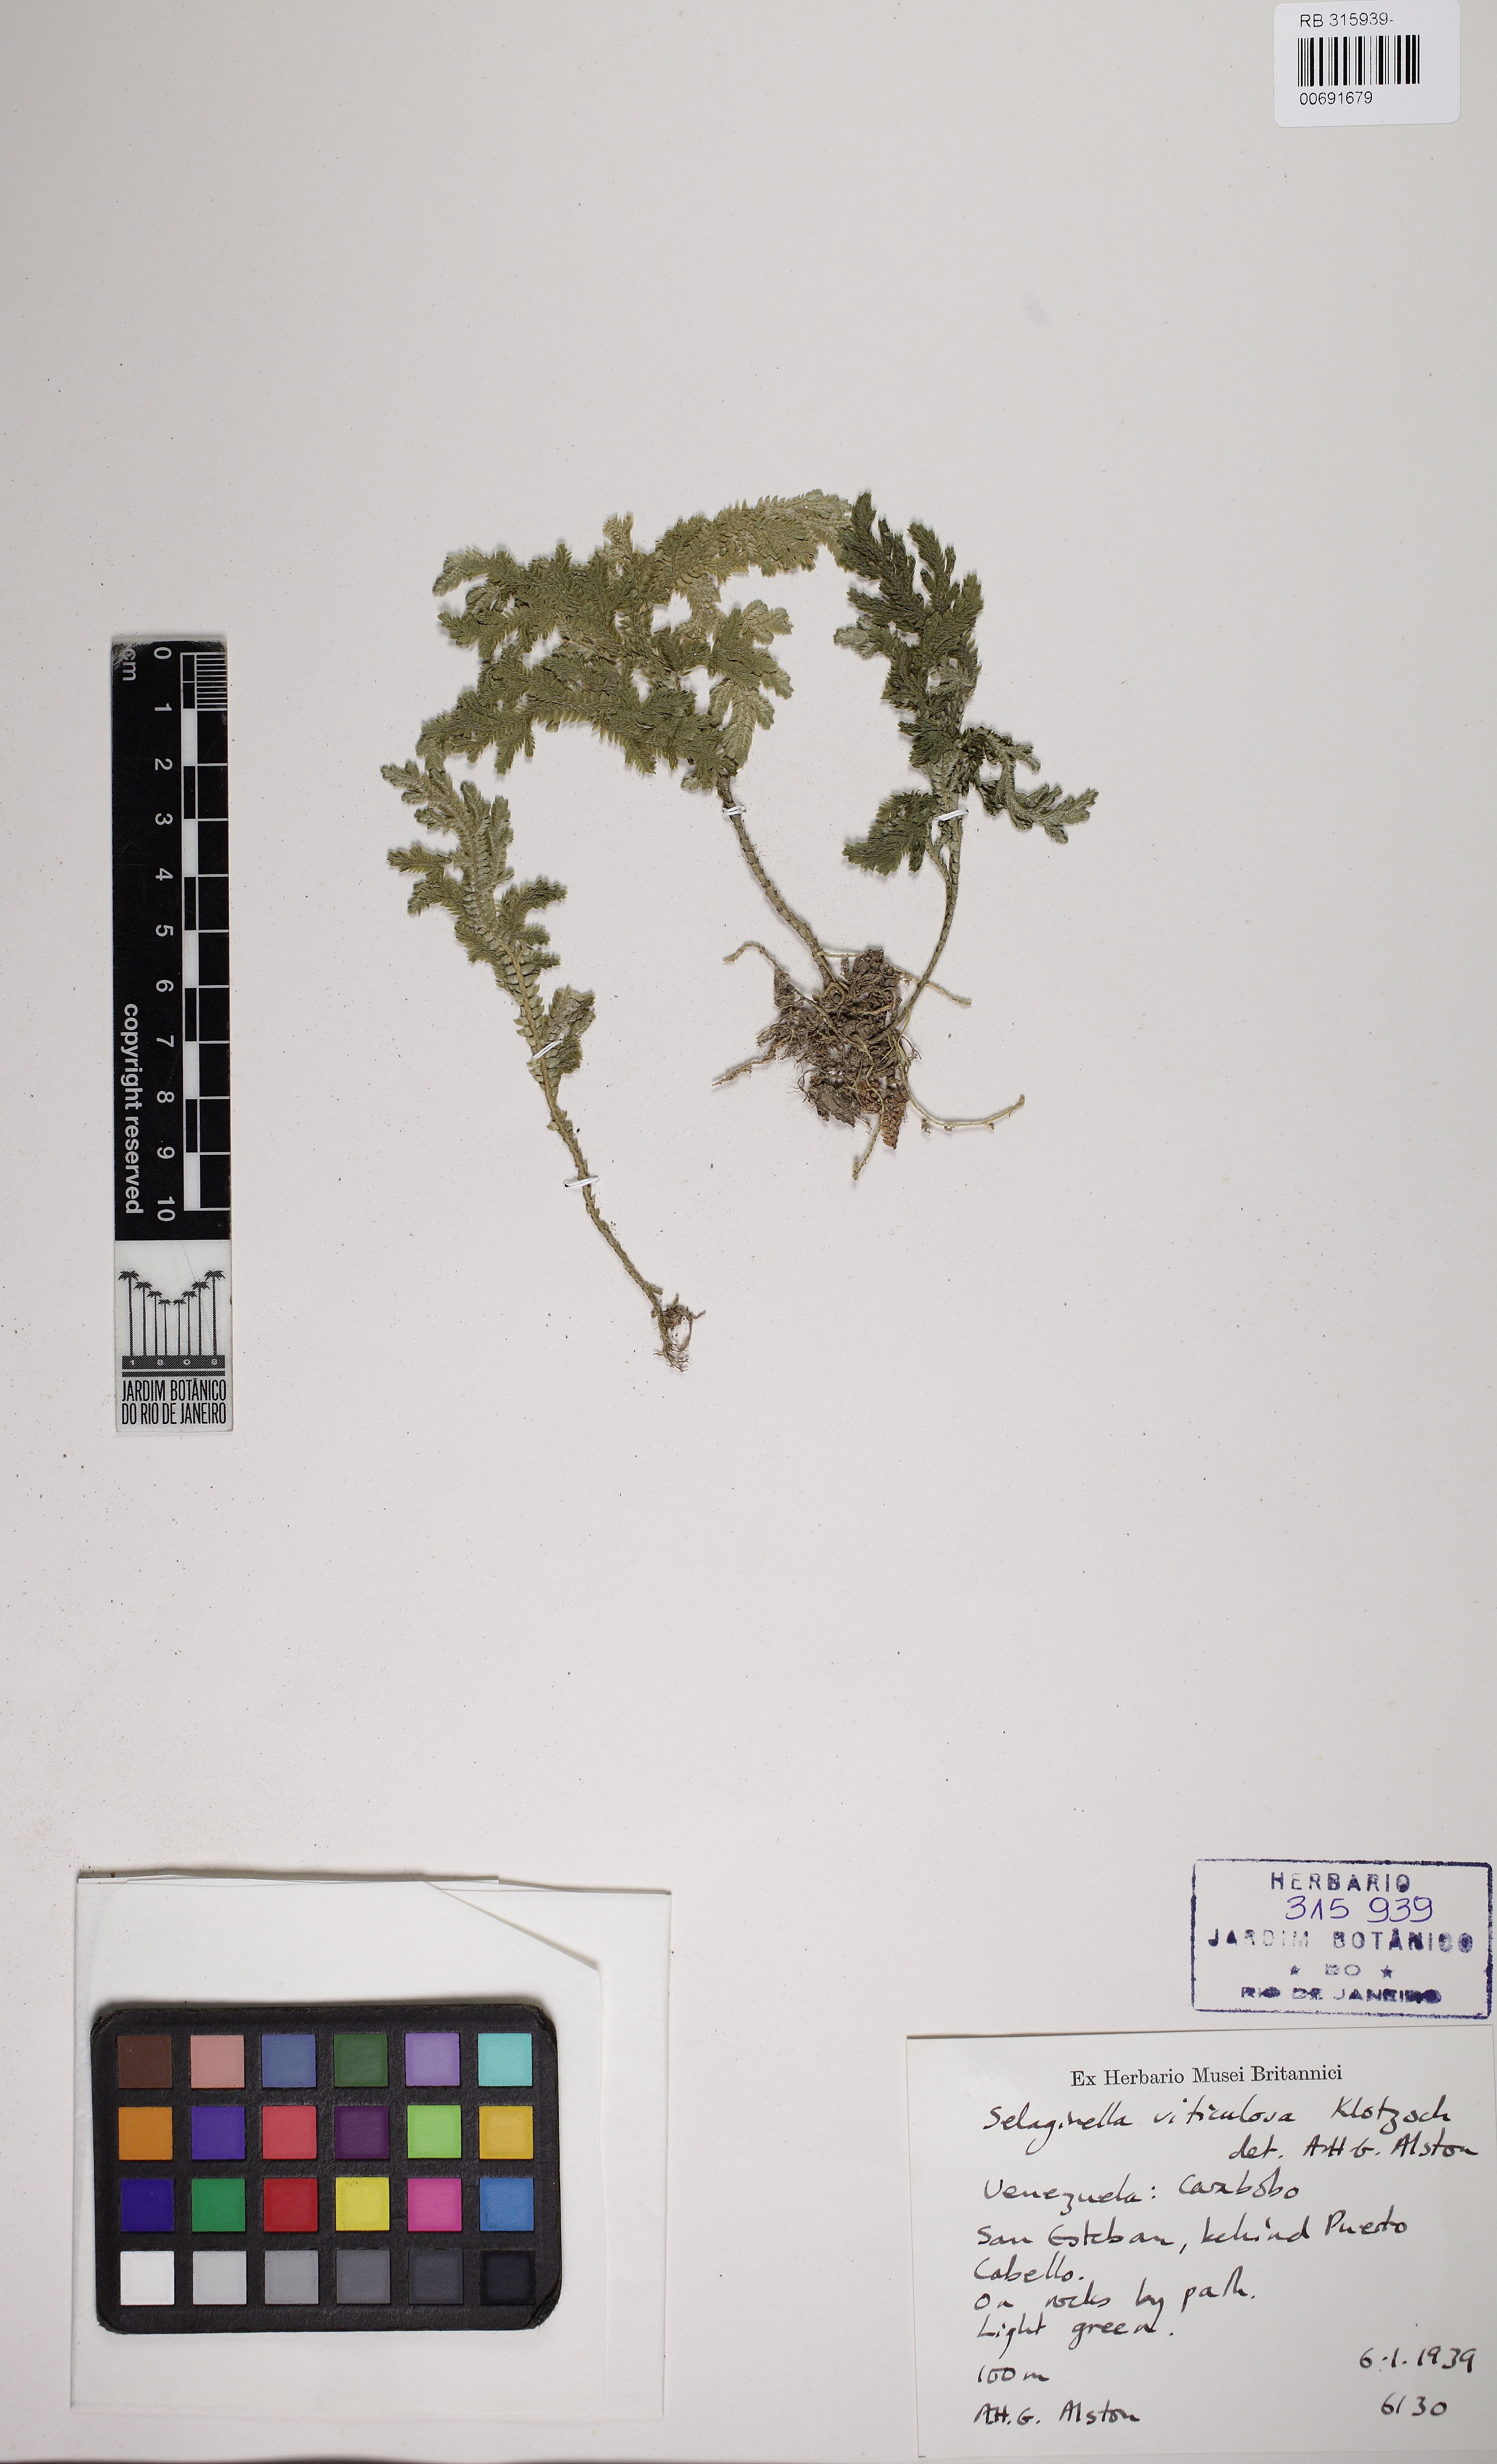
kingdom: Plantae
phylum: Tracheophyta
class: Lycopodiopsida
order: Selaginellales
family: Selaginellaceae
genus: Selaginella
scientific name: Selaginella viticulosa
